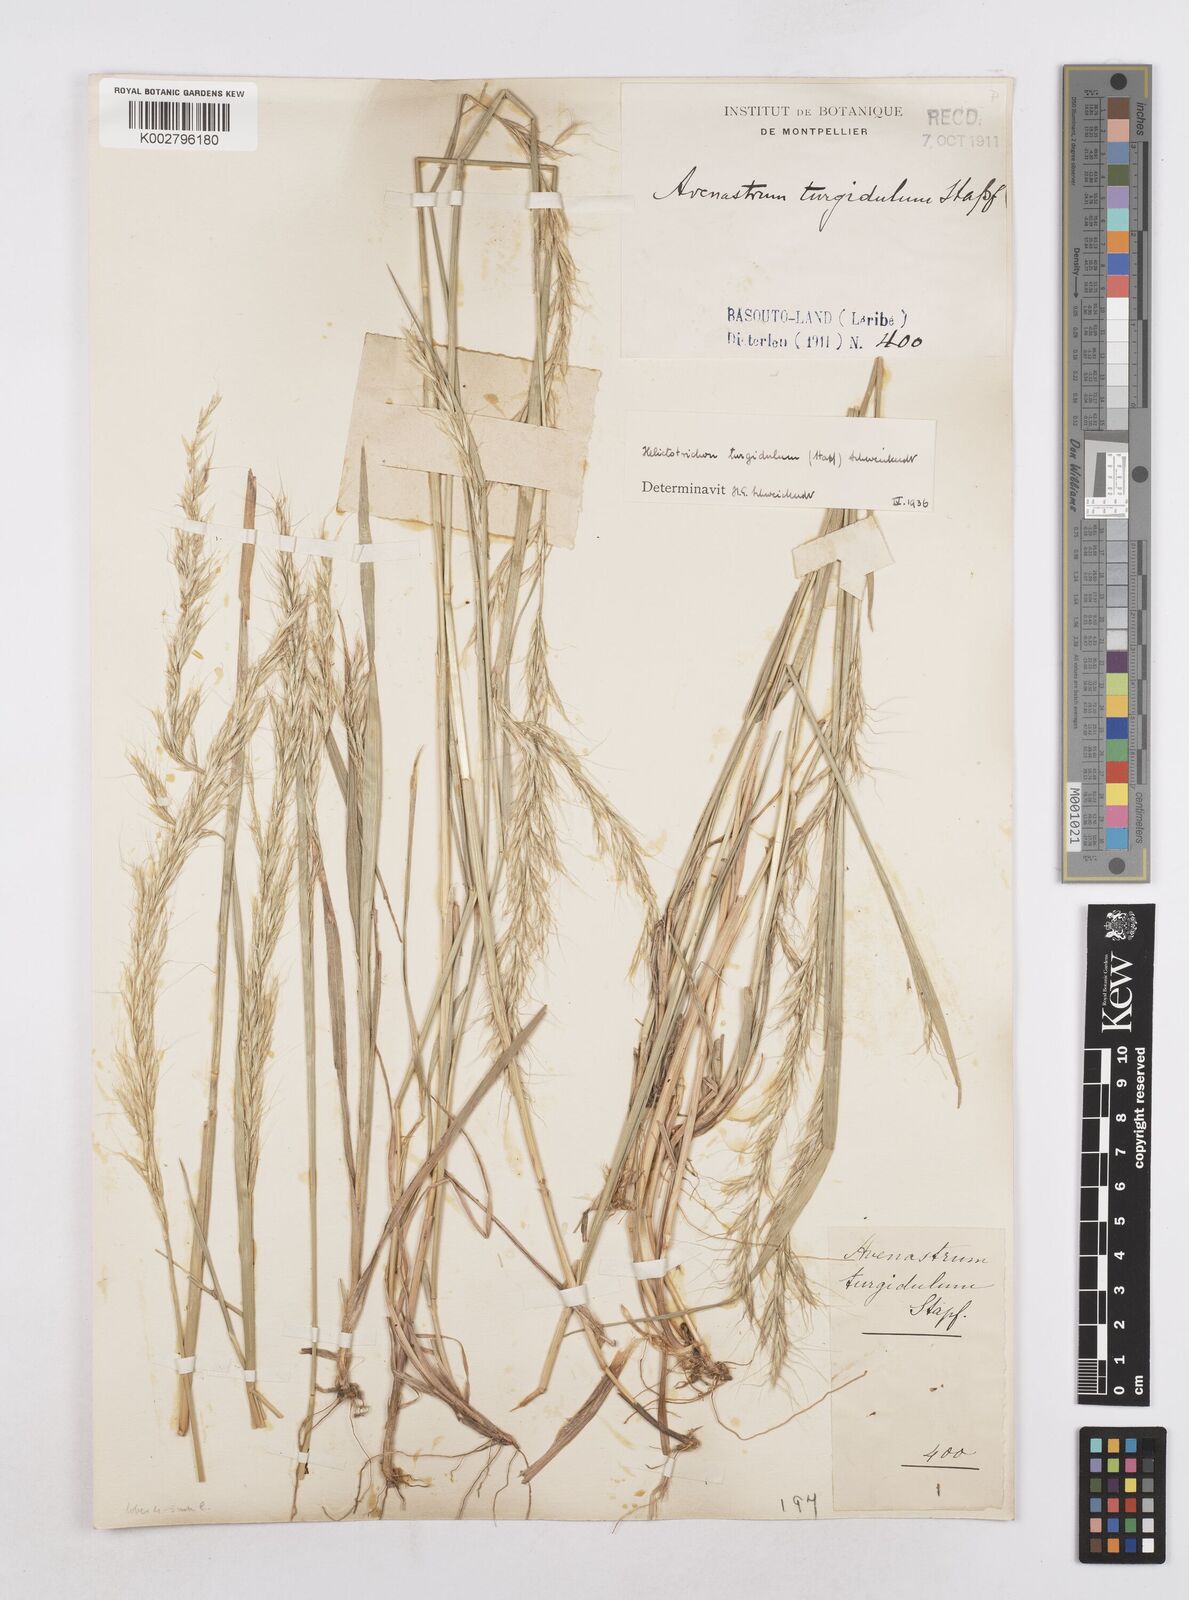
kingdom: Plantae
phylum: Tracheophyta
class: Liliopsida
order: Poales
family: Poaceae
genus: Trisetopsis
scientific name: Trisetopsis imberbis
